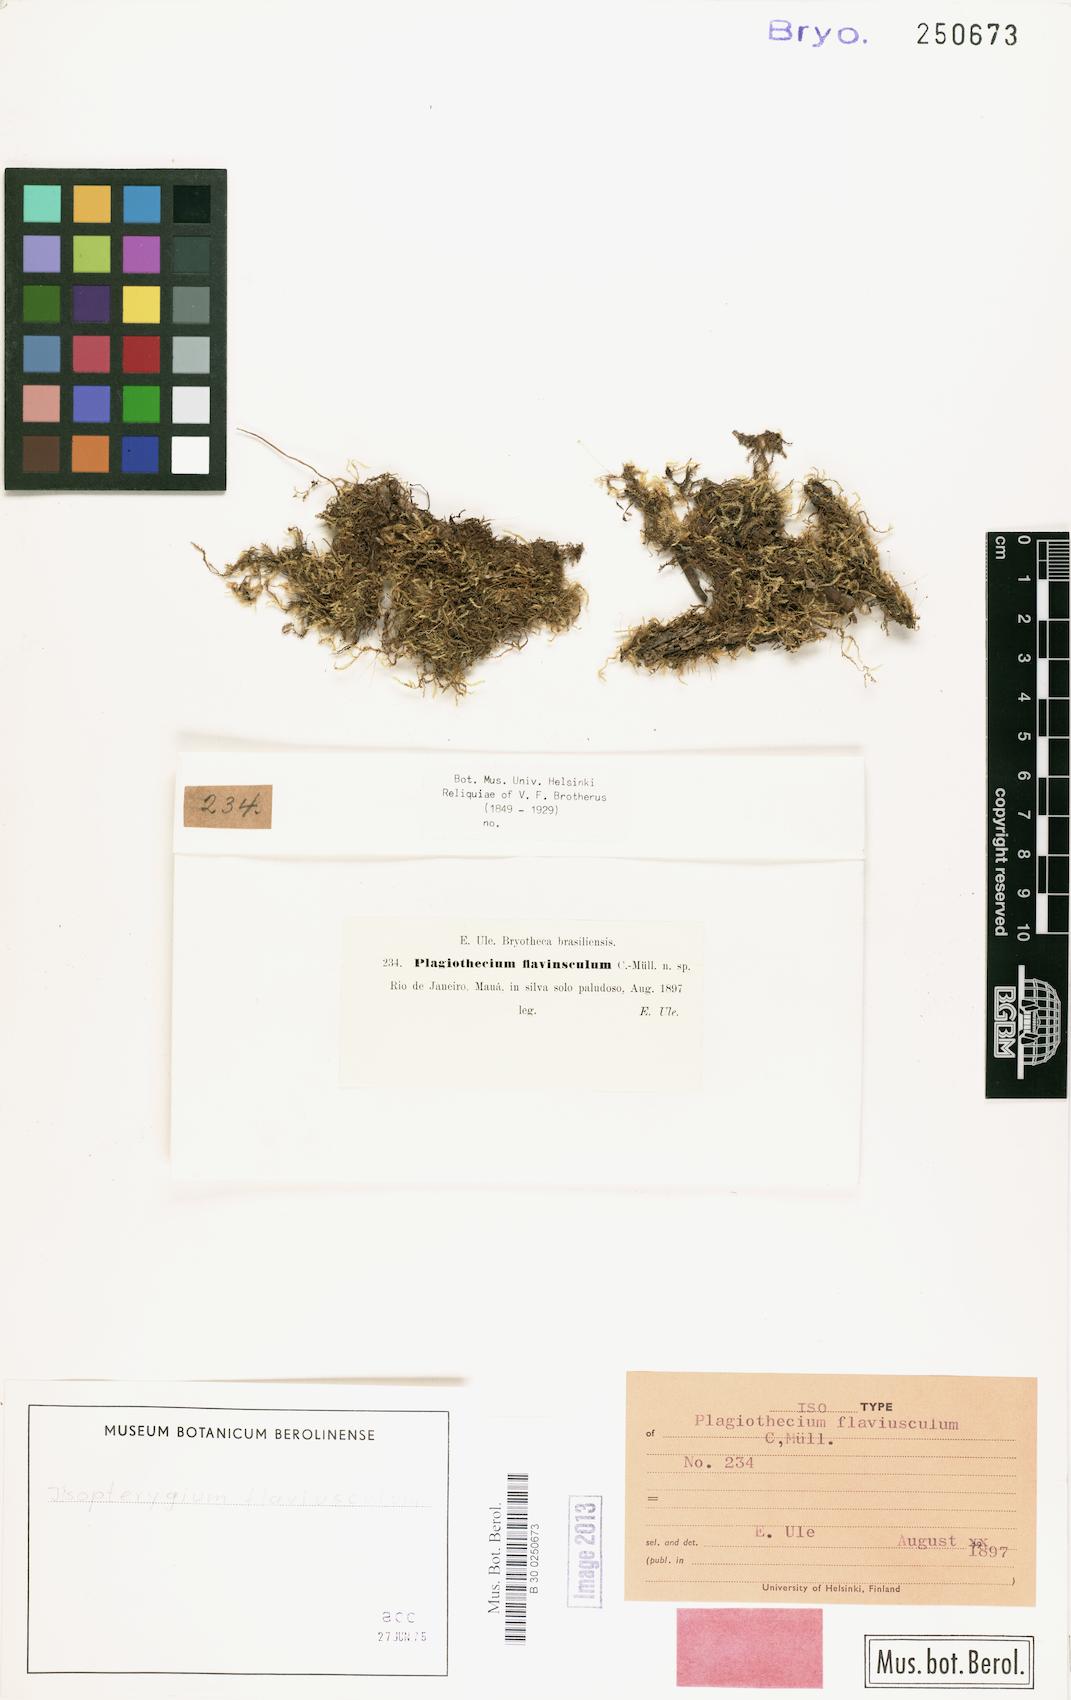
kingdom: Plantae
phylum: Bryophyta
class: Bryopsida
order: Hypnales
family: Pylaisiadelphaceae
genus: Isopterygium
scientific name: Isopterygium tenerum
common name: Isopterygium moss
